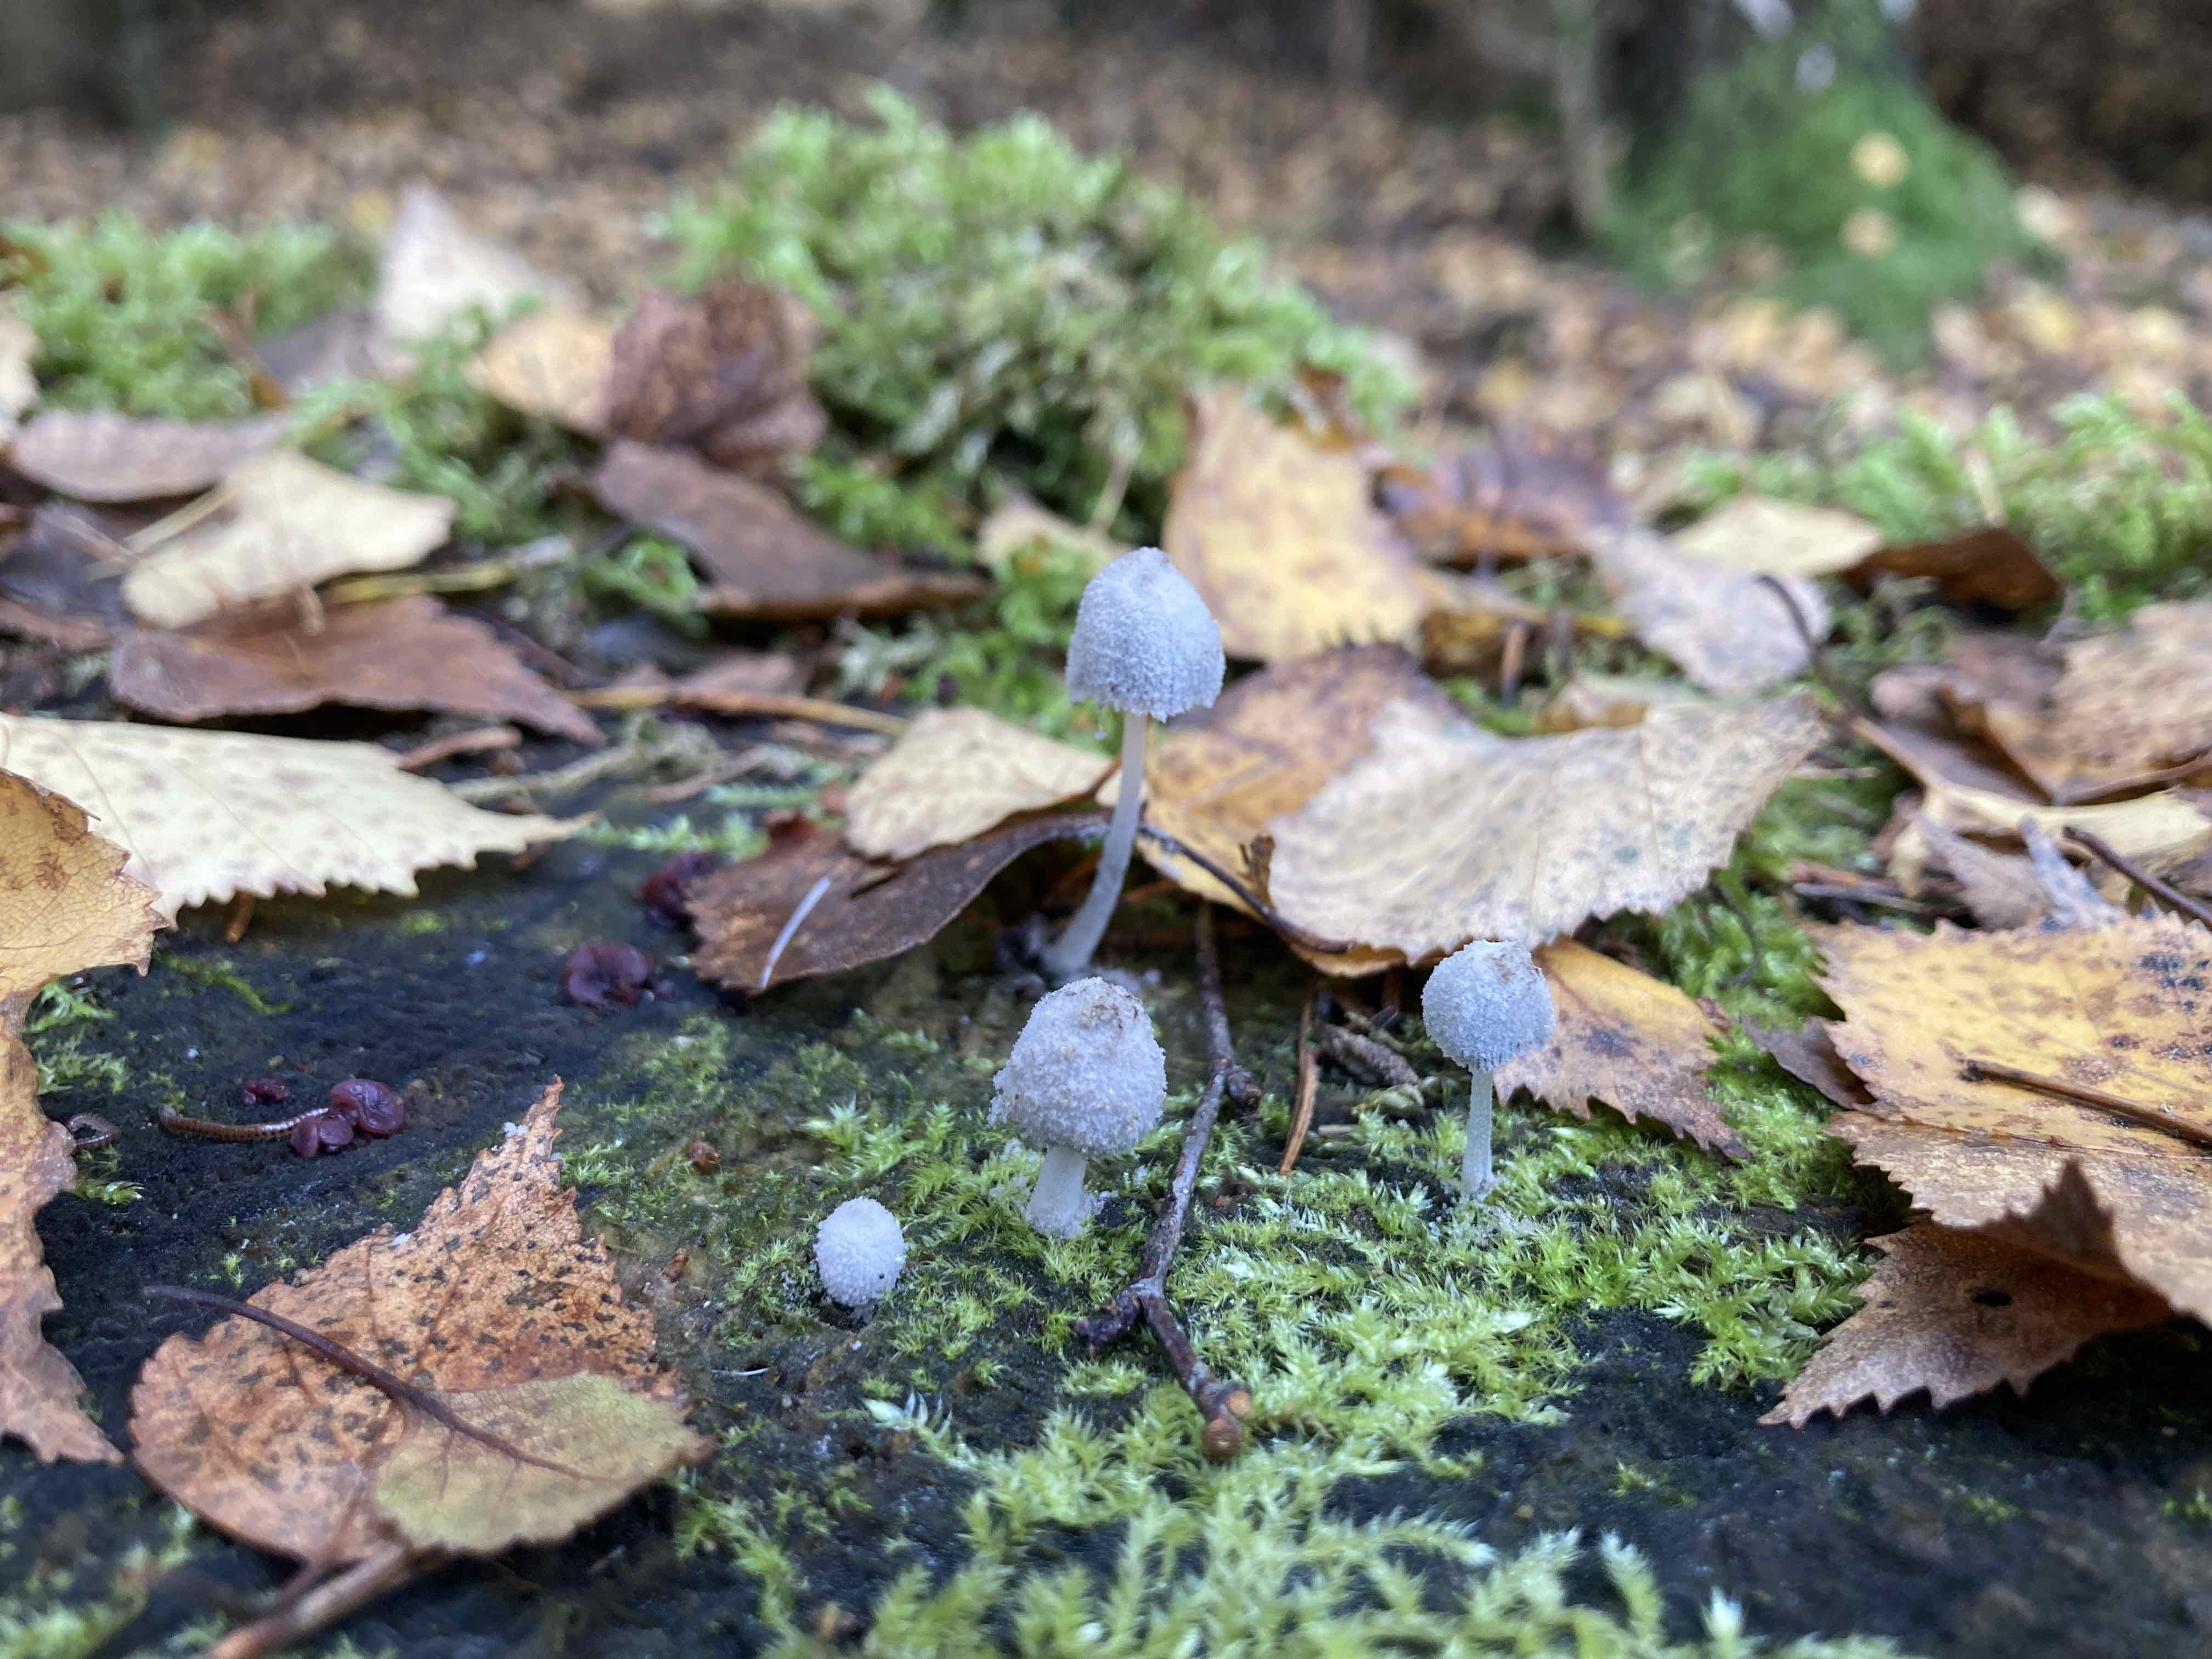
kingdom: Fungi
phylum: Basidiomycota
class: Agaricomycetes
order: Agaricales
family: Psathyrellaceae
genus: Coprinopsis
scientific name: Coprinopsis laanii
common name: stub-blækhat
